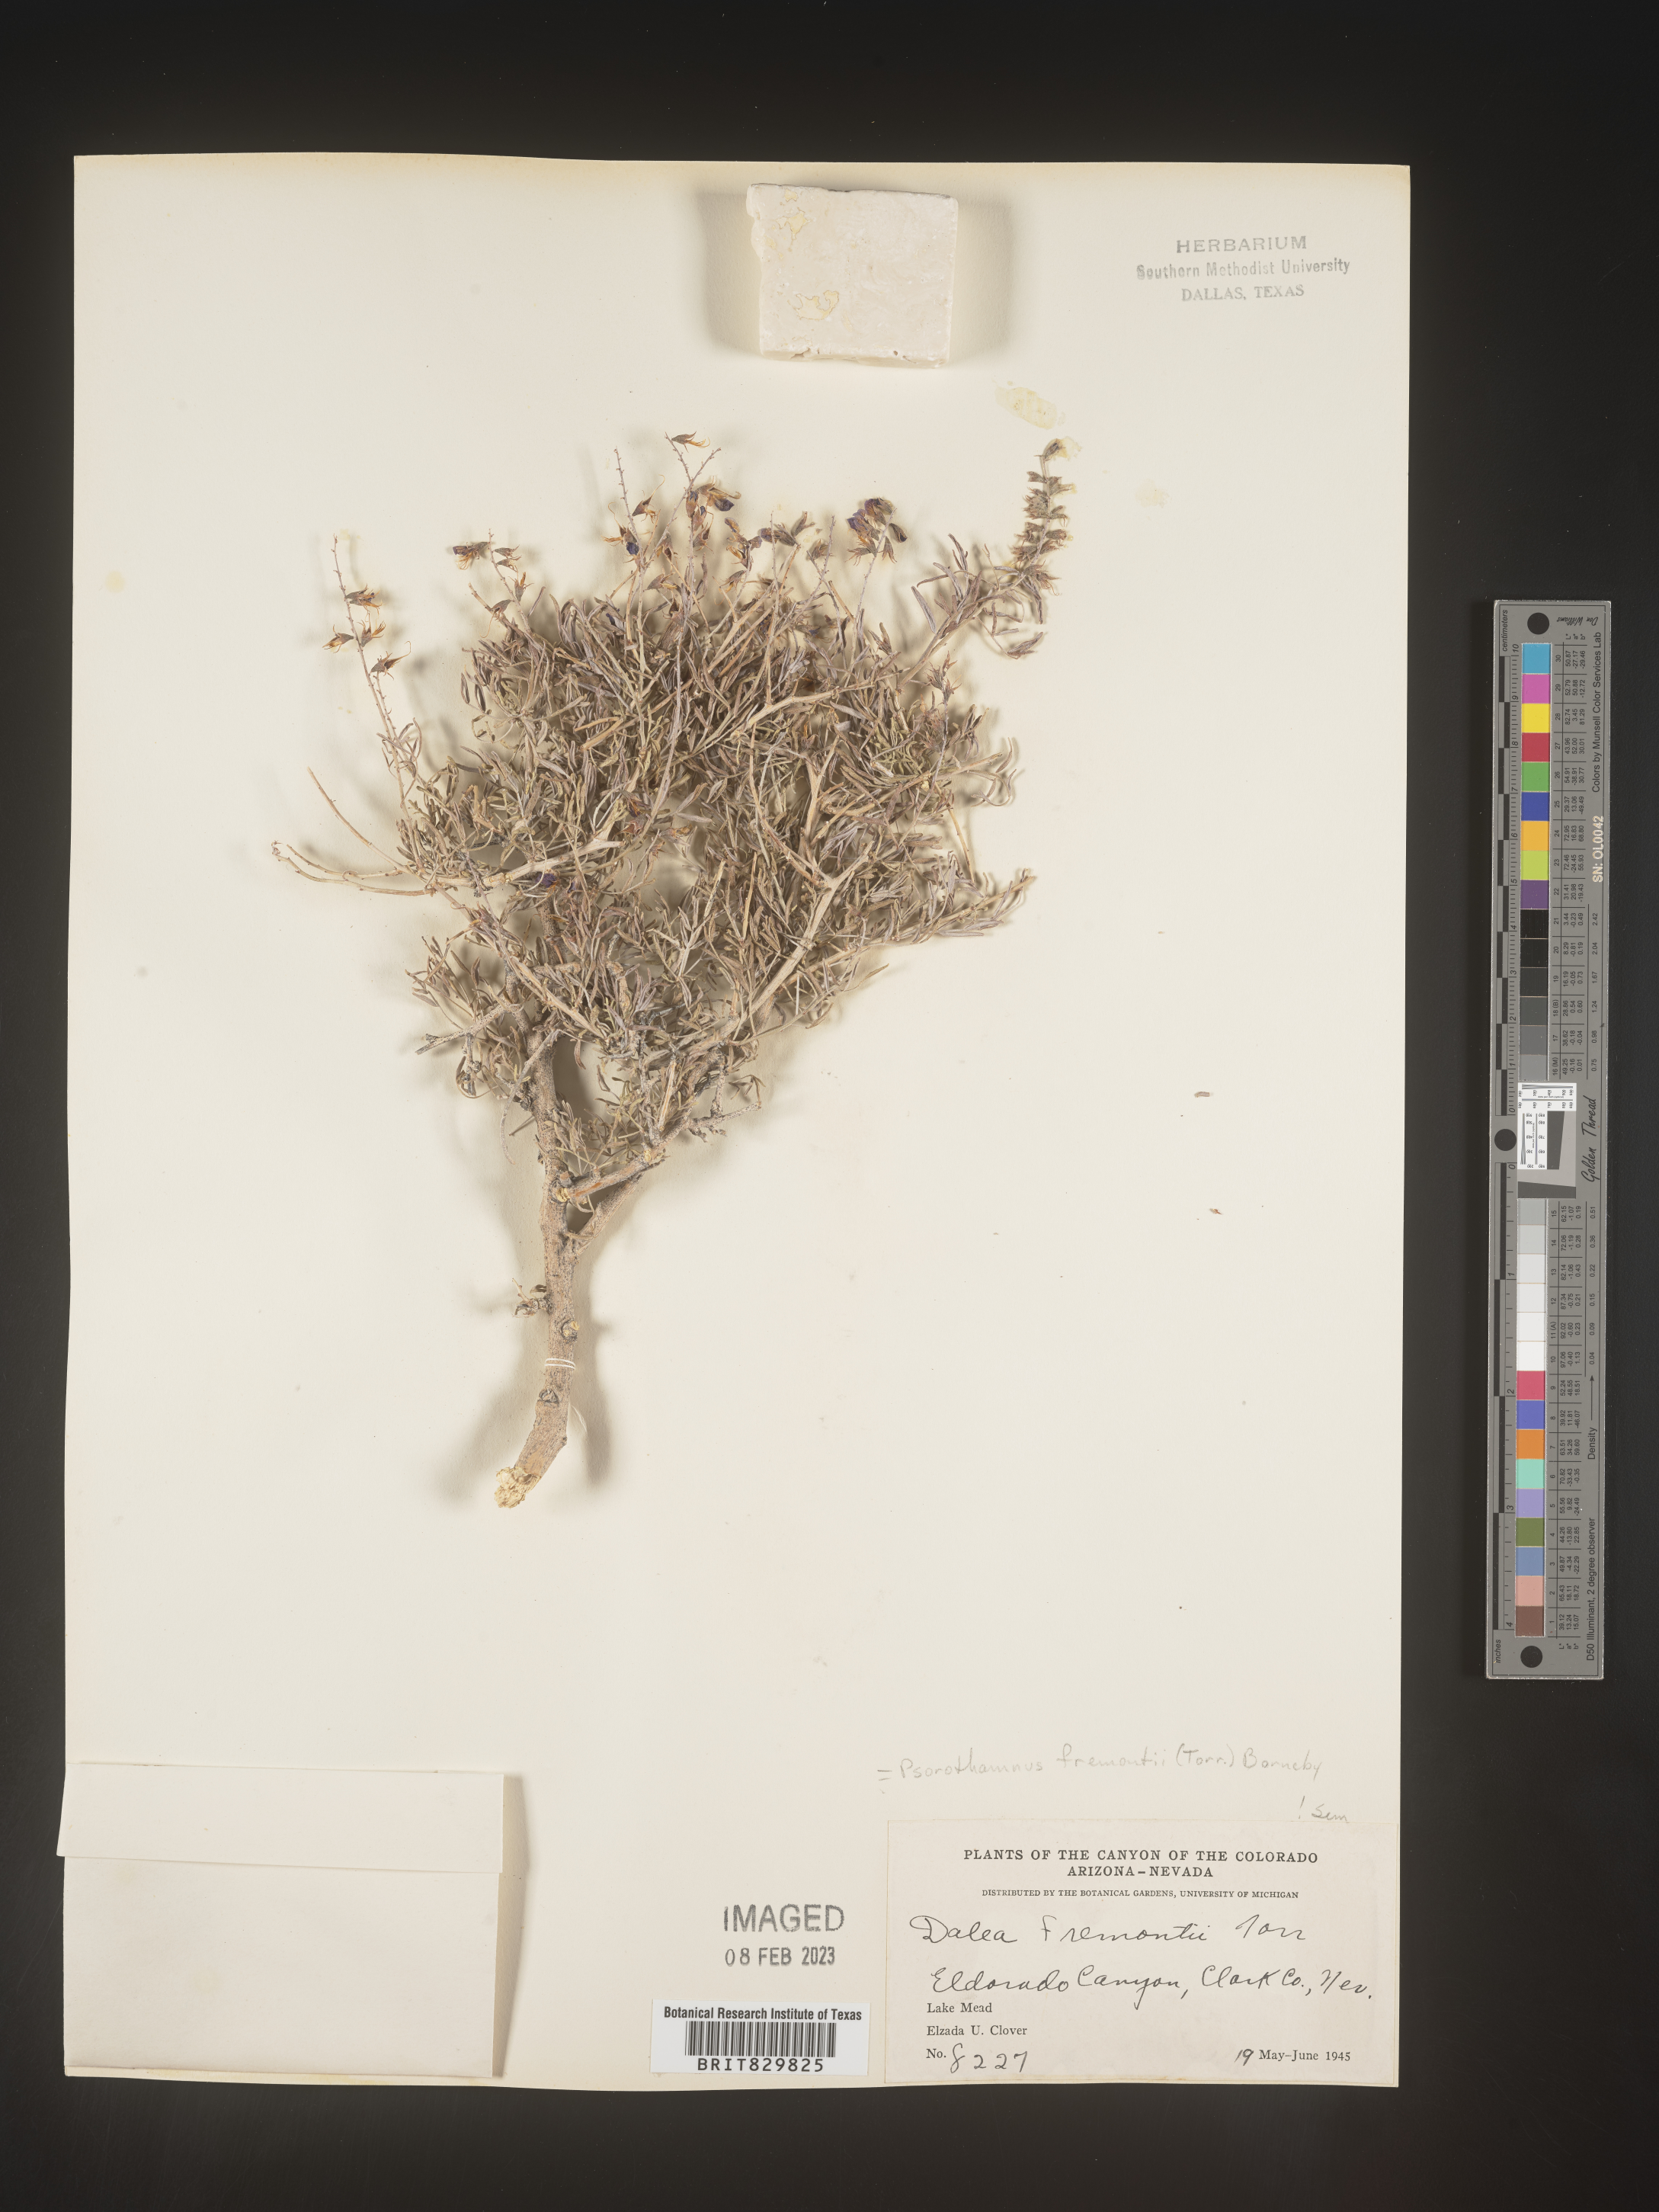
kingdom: Plantae
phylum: Tracheophyta
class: Magnoliopsida
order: Fabales
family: Fabaceae
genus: Psorothamnus
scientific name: Psorothamnus
